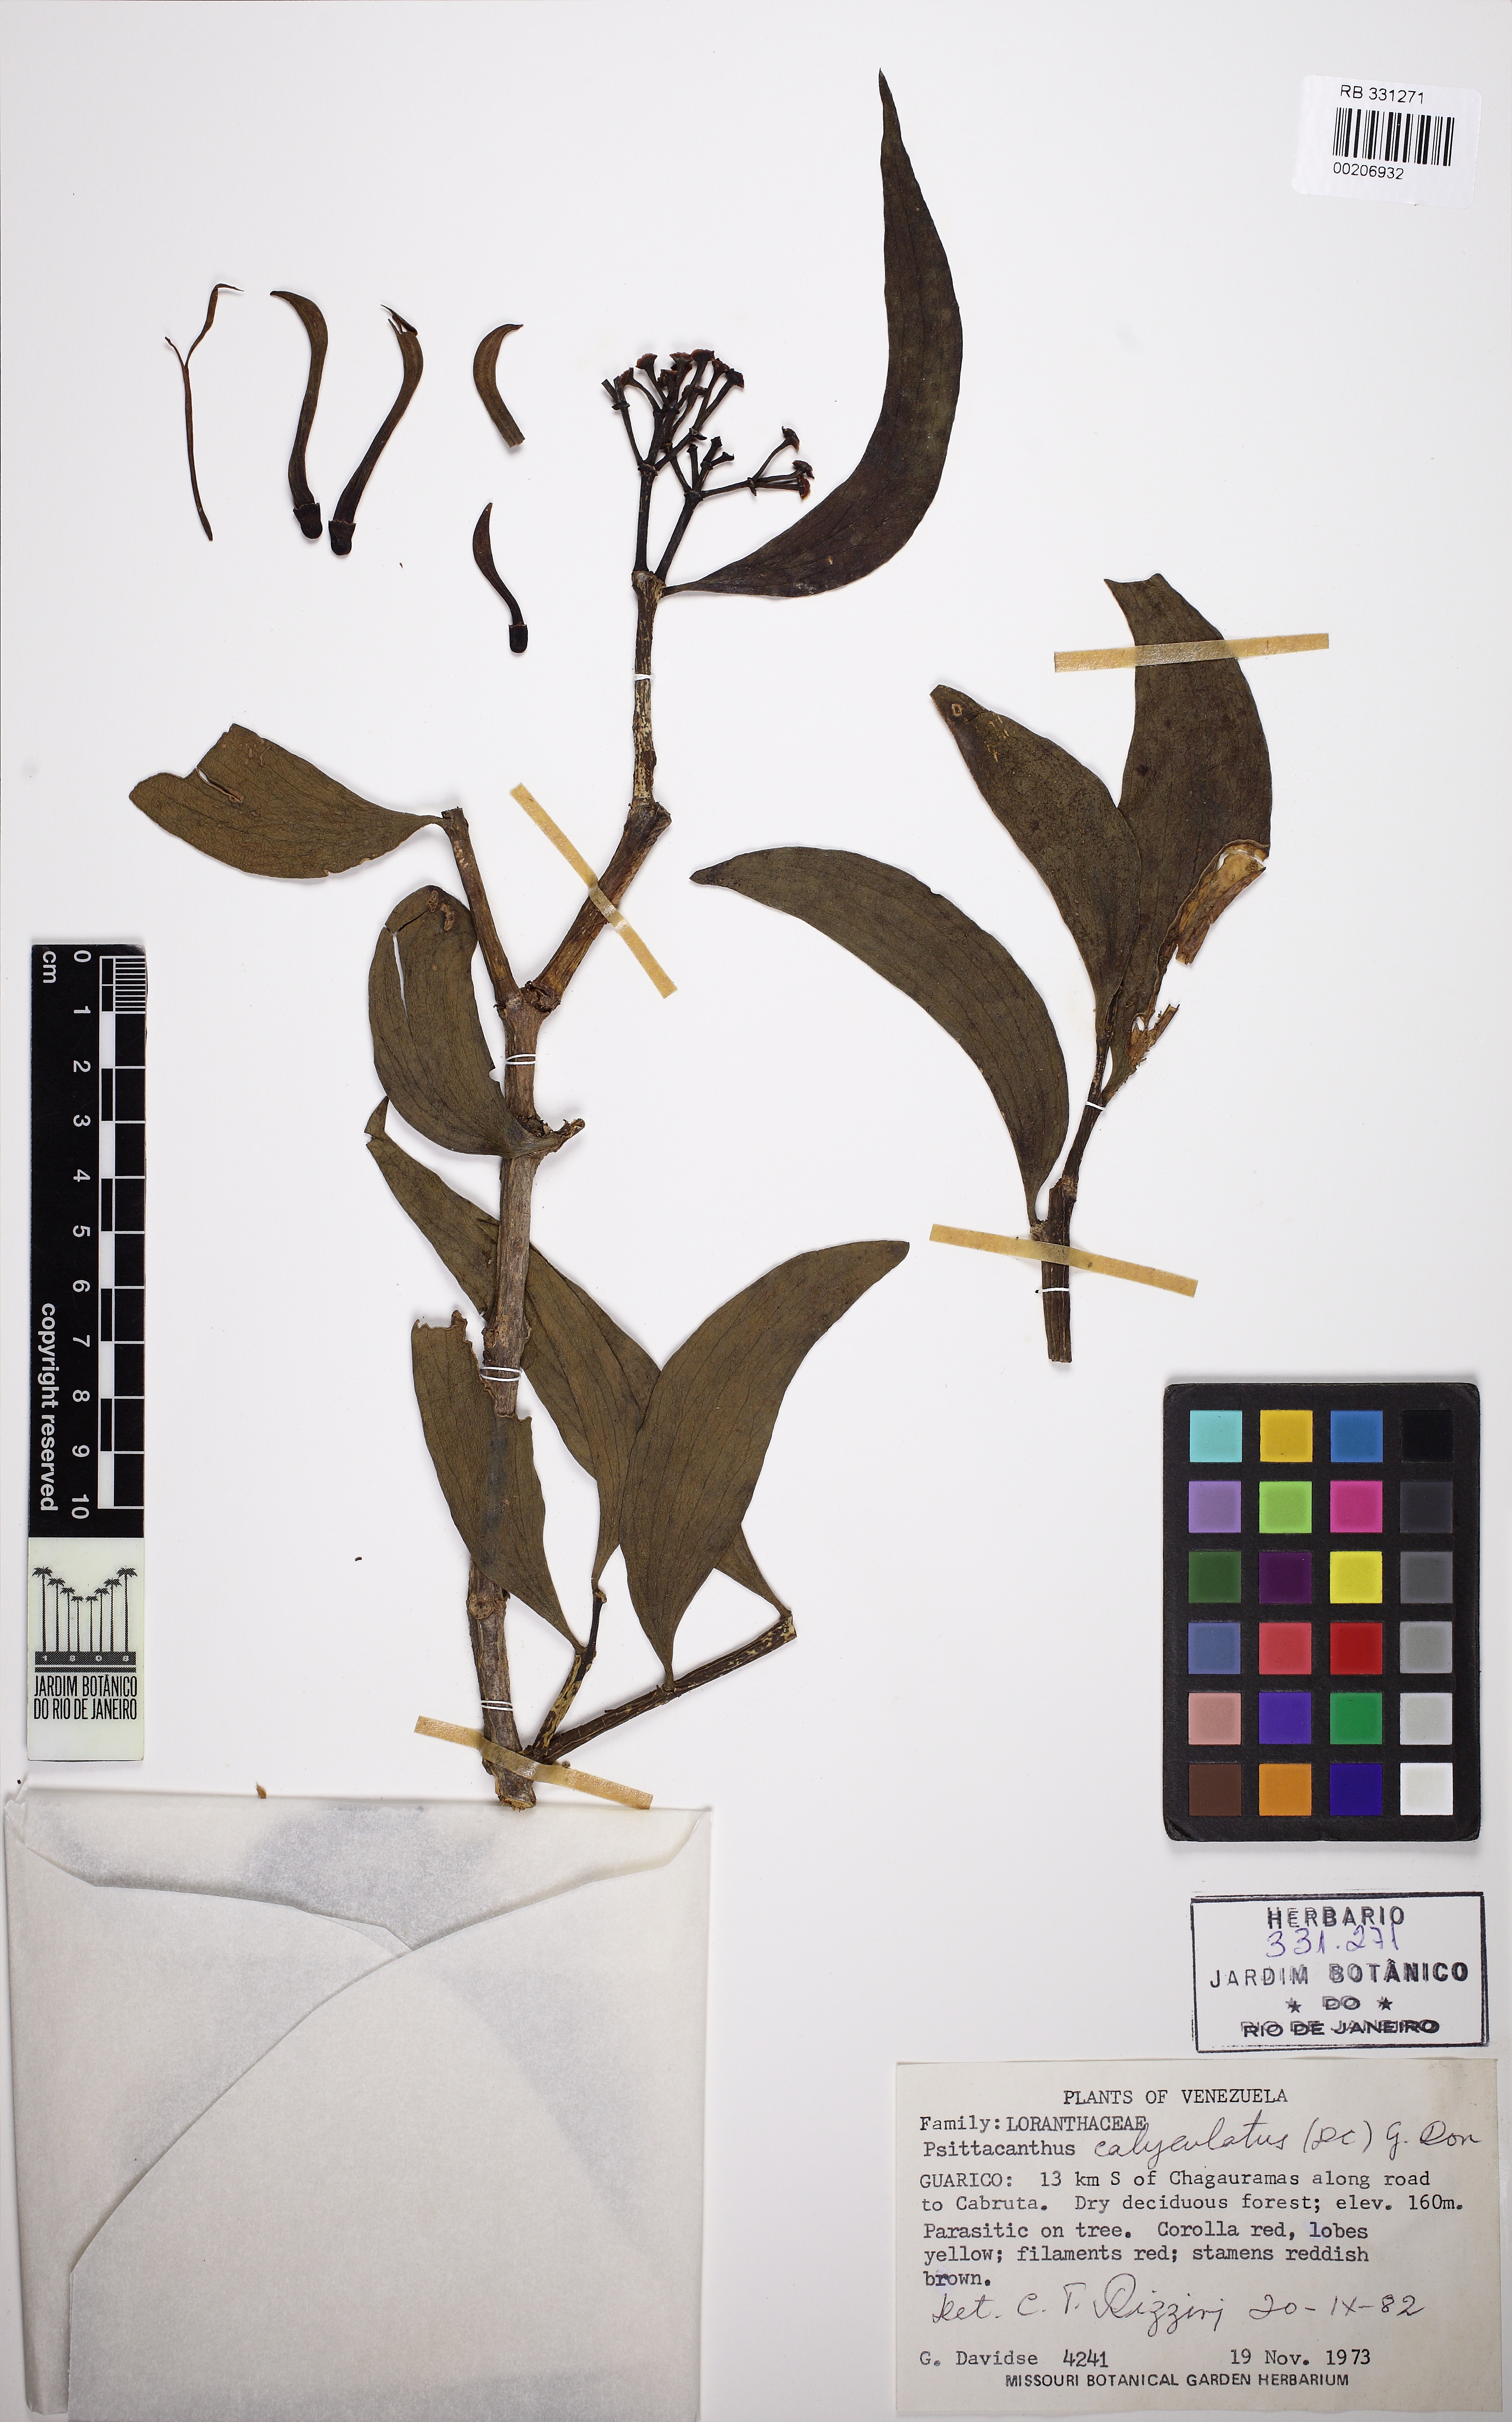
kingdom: Plantae
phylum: Tracheophyta
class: Magnoliopsida
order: Santalales
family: Loranthaceae
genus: Psittacanthus
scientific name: Psittacanthus calyculatus
